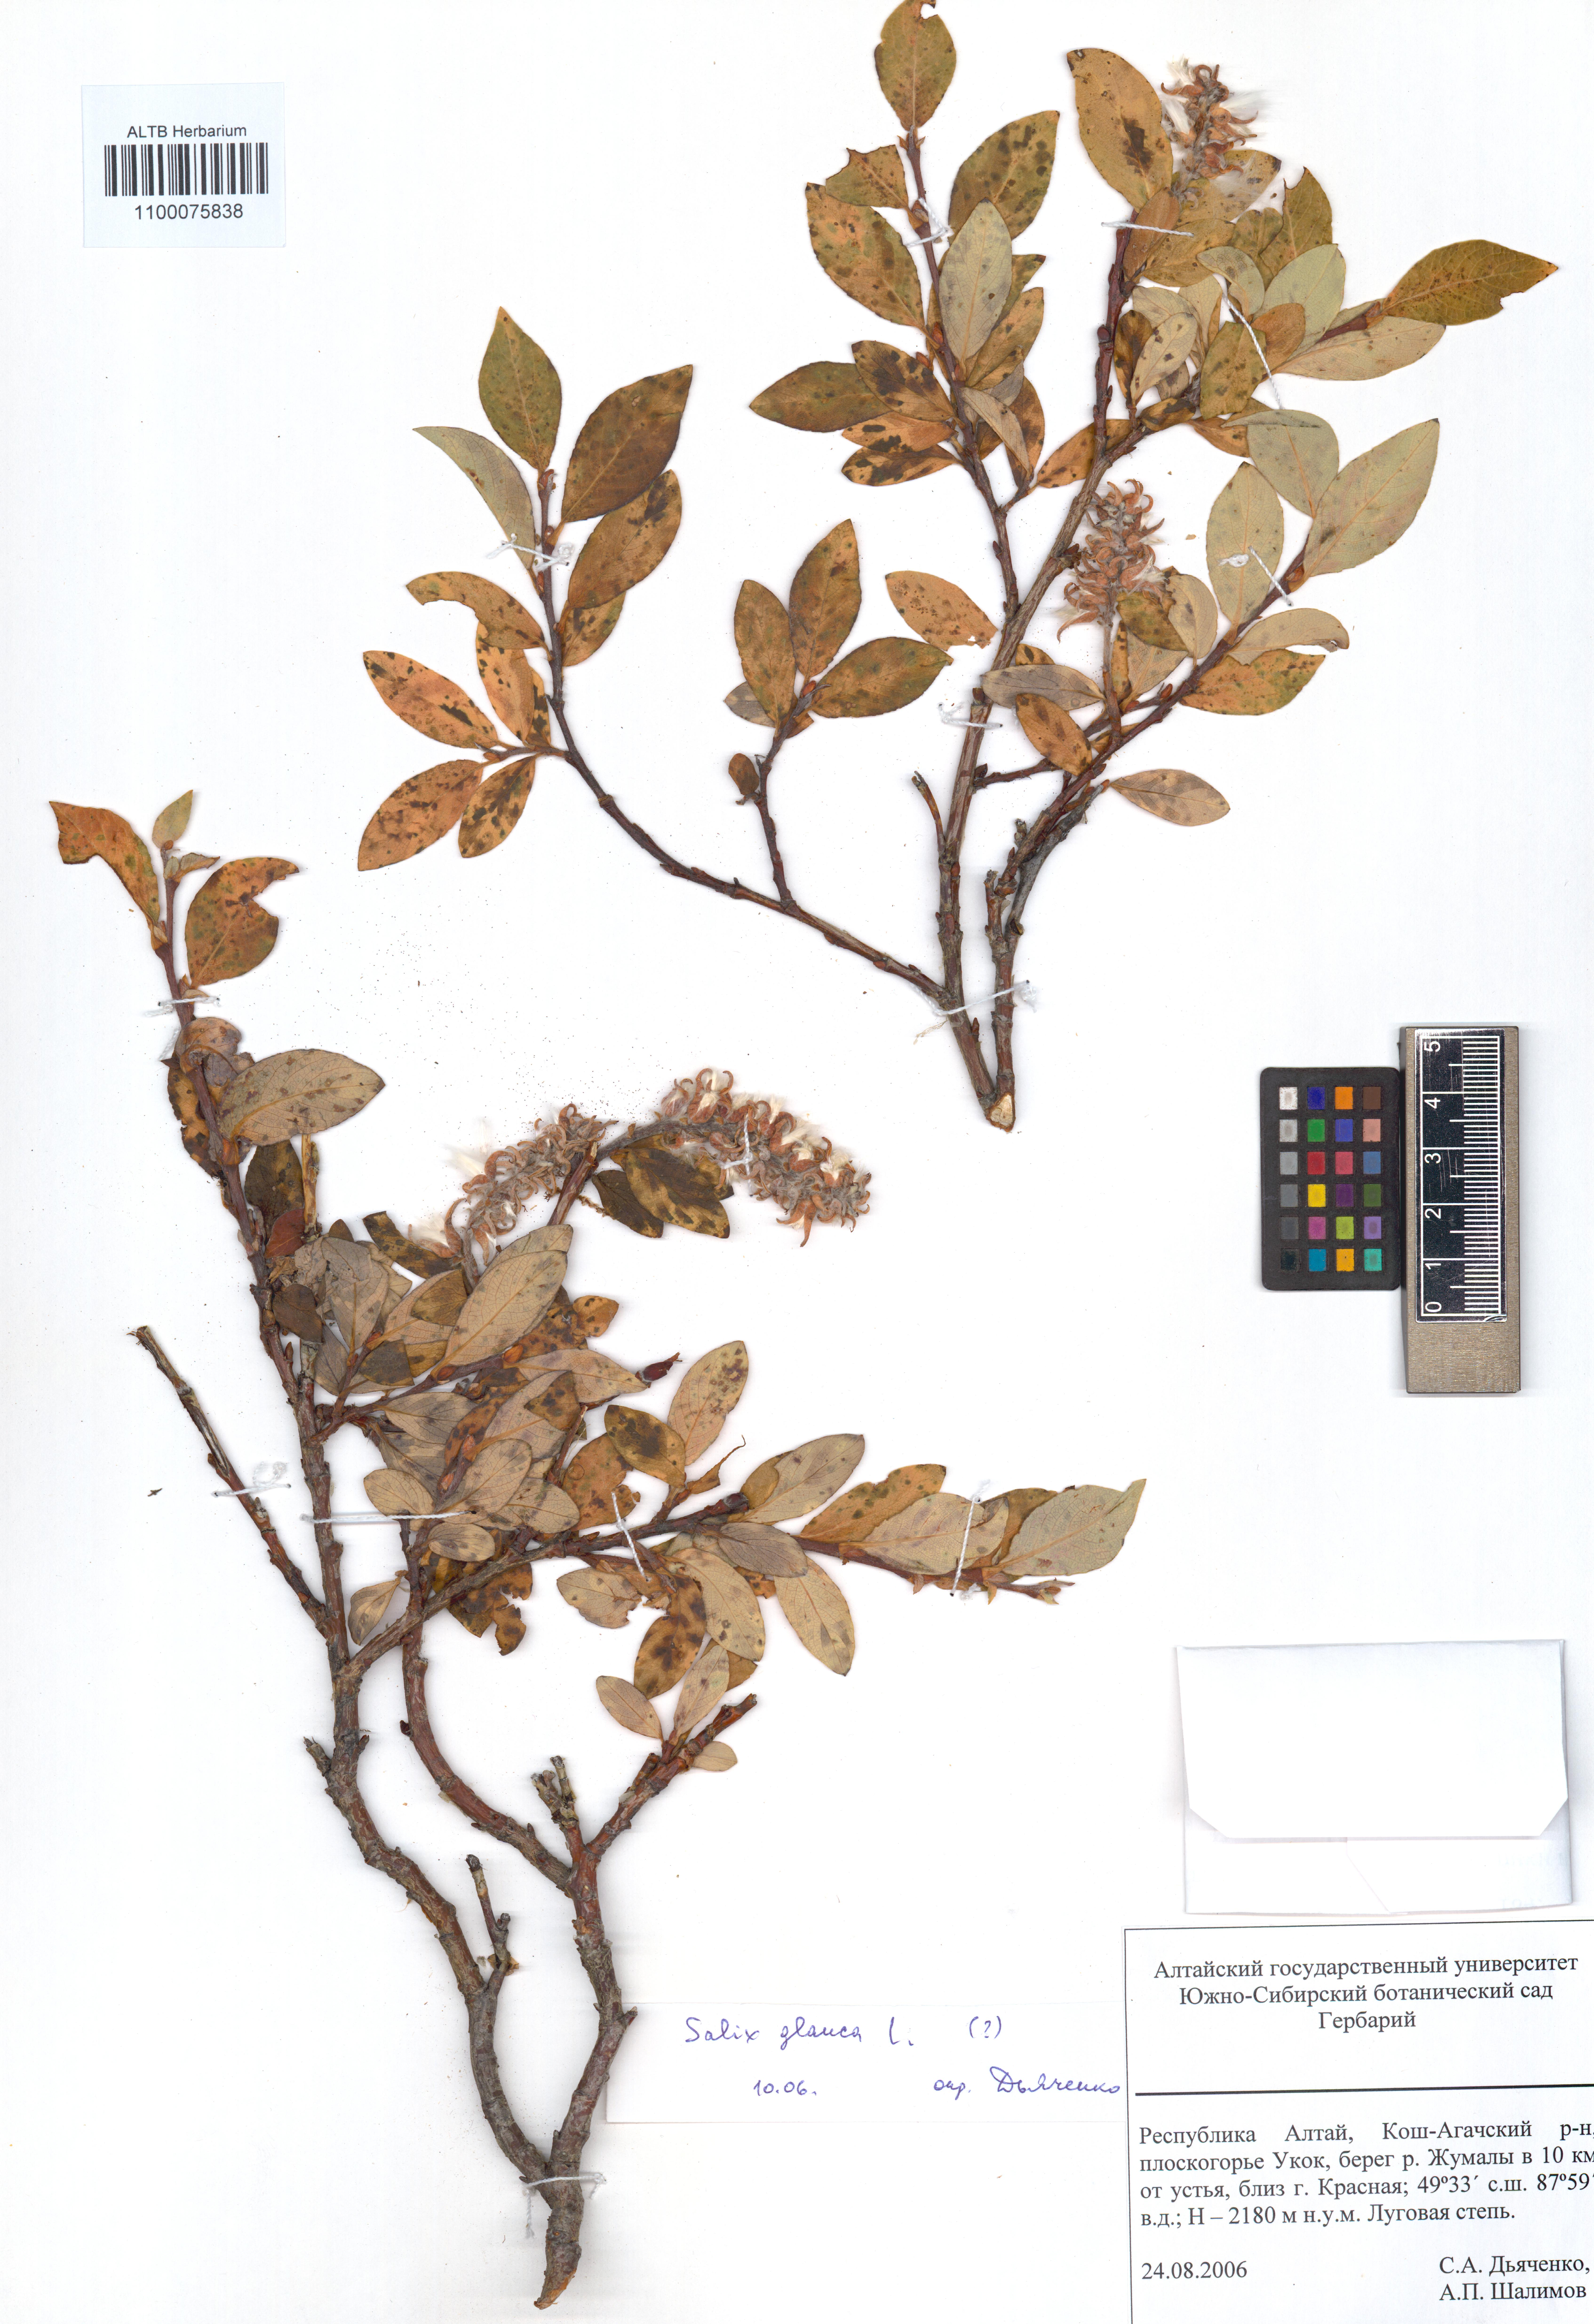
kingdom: Plantae
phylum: Tracheophyta
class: Magnoliopsida
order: Malpighiales
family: Salicaceae
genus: Salix
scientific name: Salix glauca
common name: Glaucous willow
